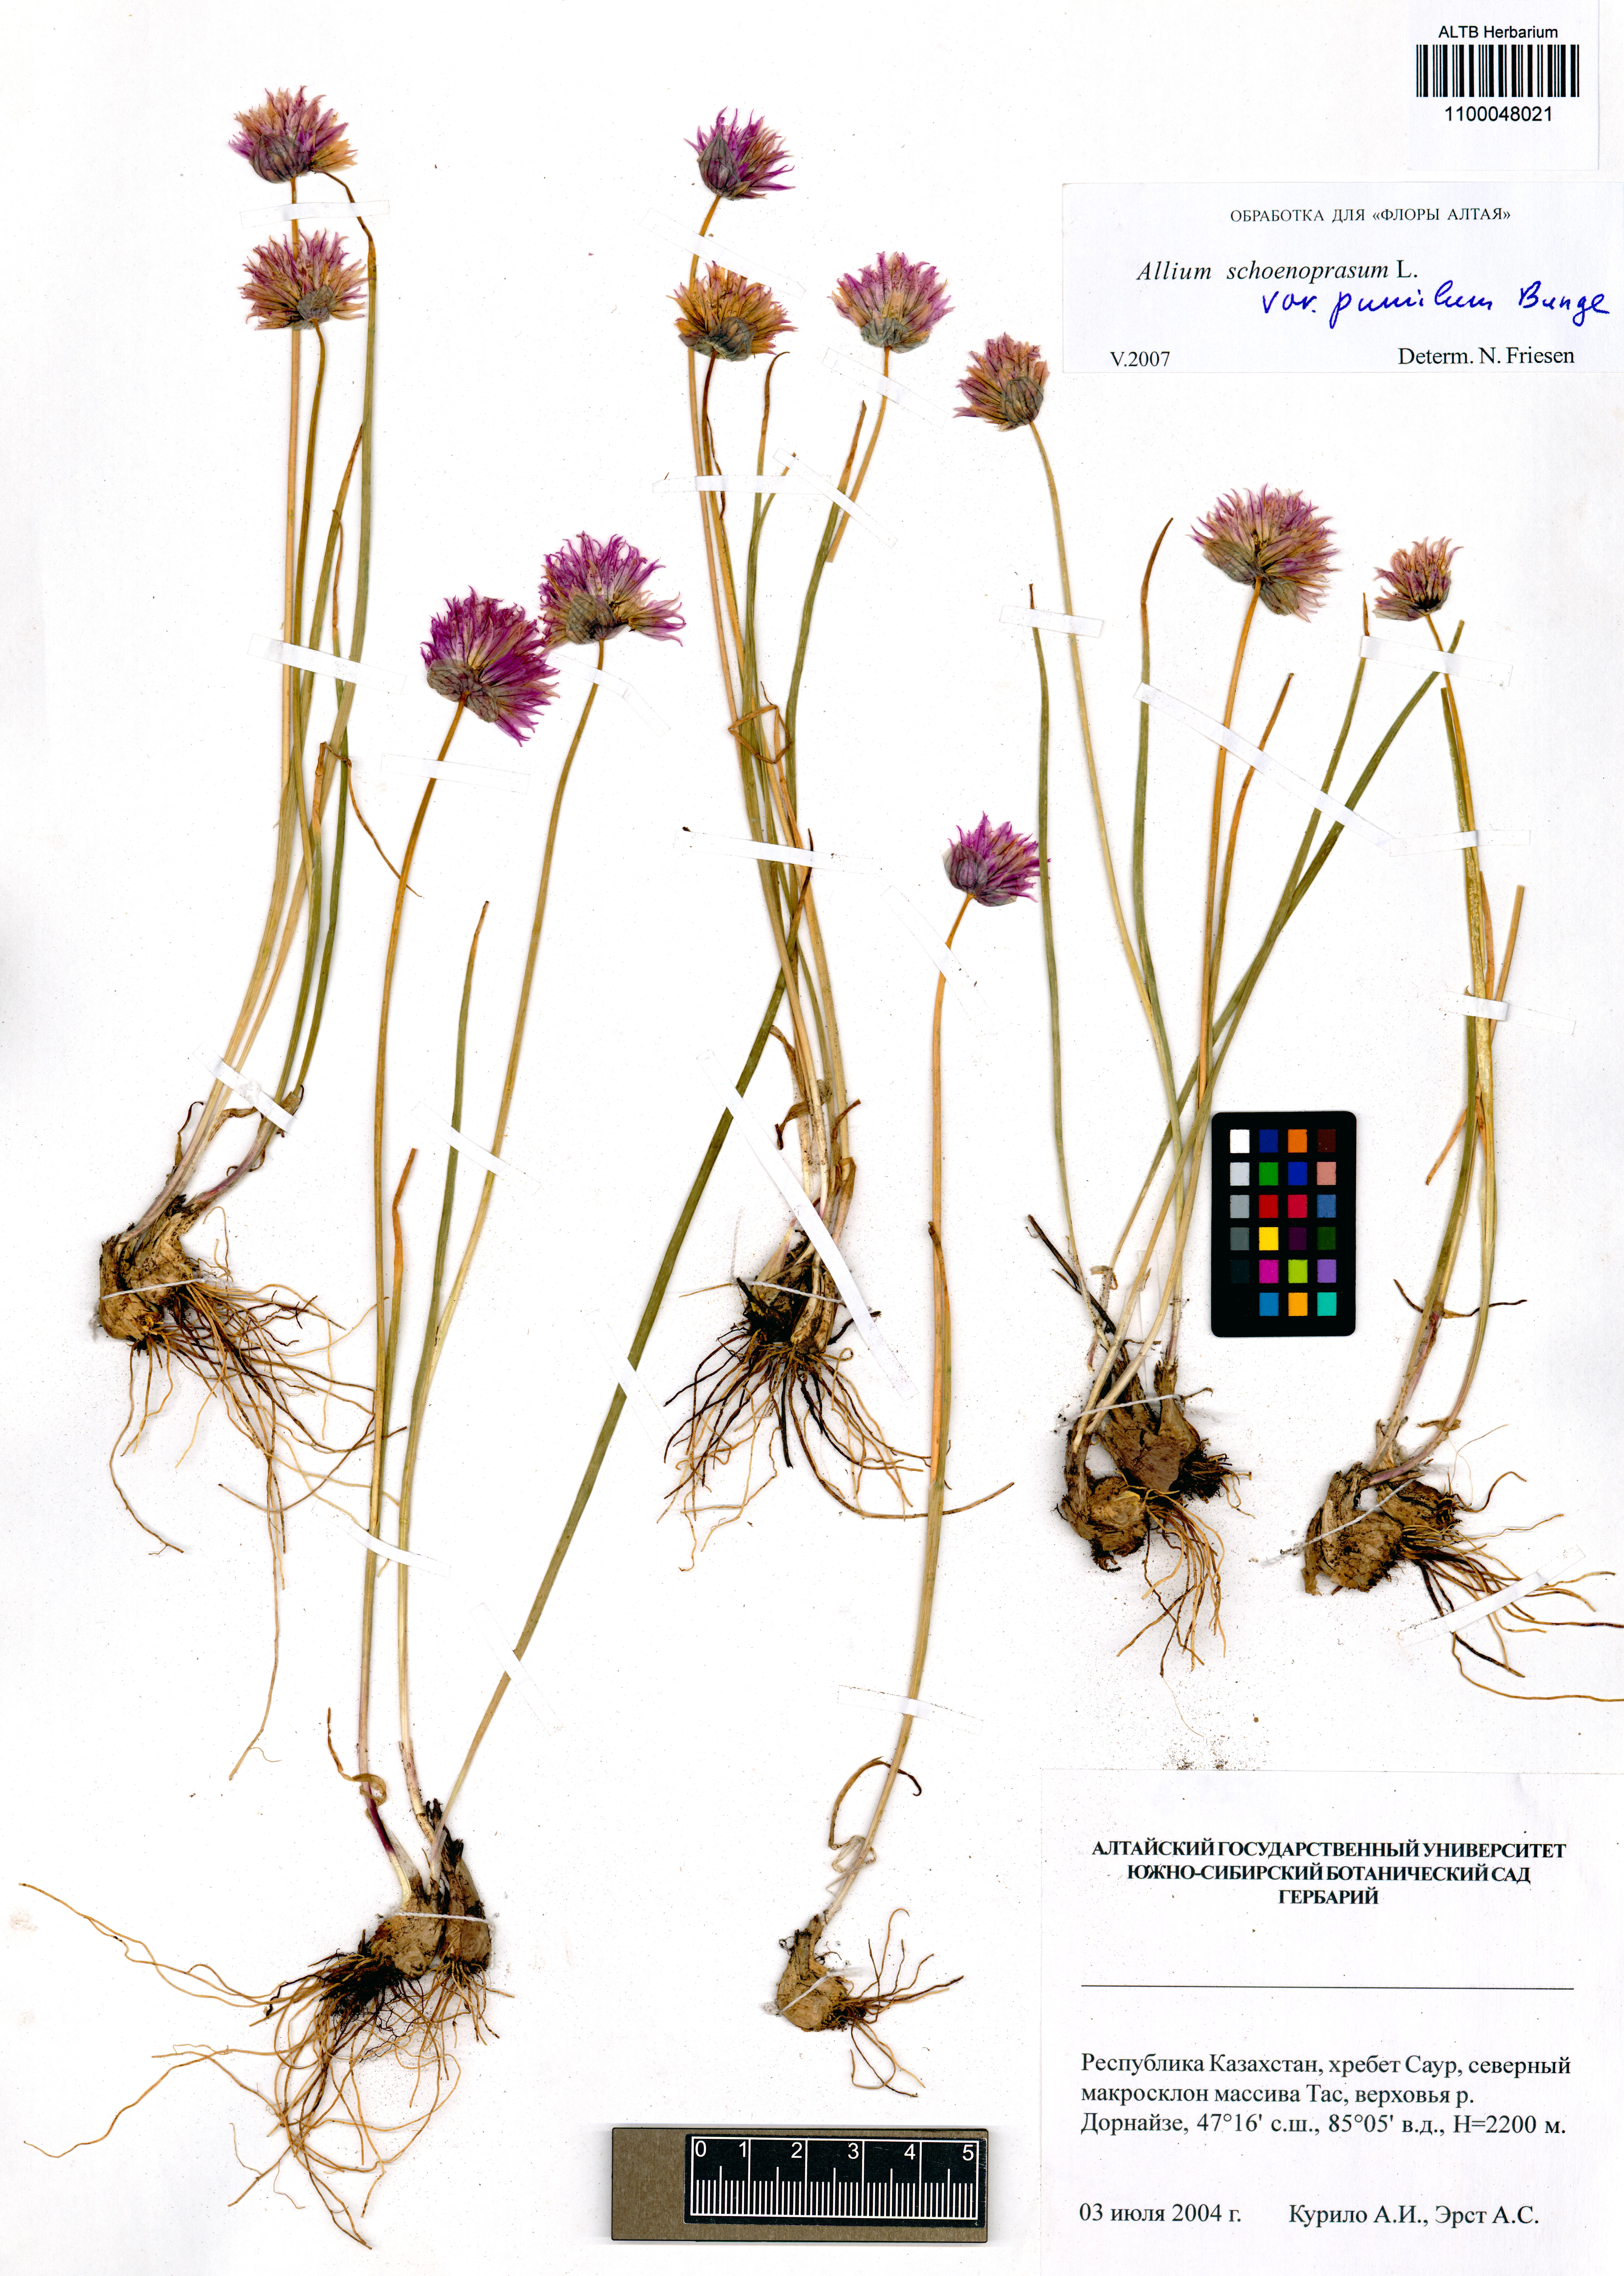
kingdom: Plantae
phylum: Tracheophyta
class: Liliopsida
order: Asparagales
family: Amaryllidaceae
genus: Allium
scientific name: Allium schoenoprasum
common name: Chives
